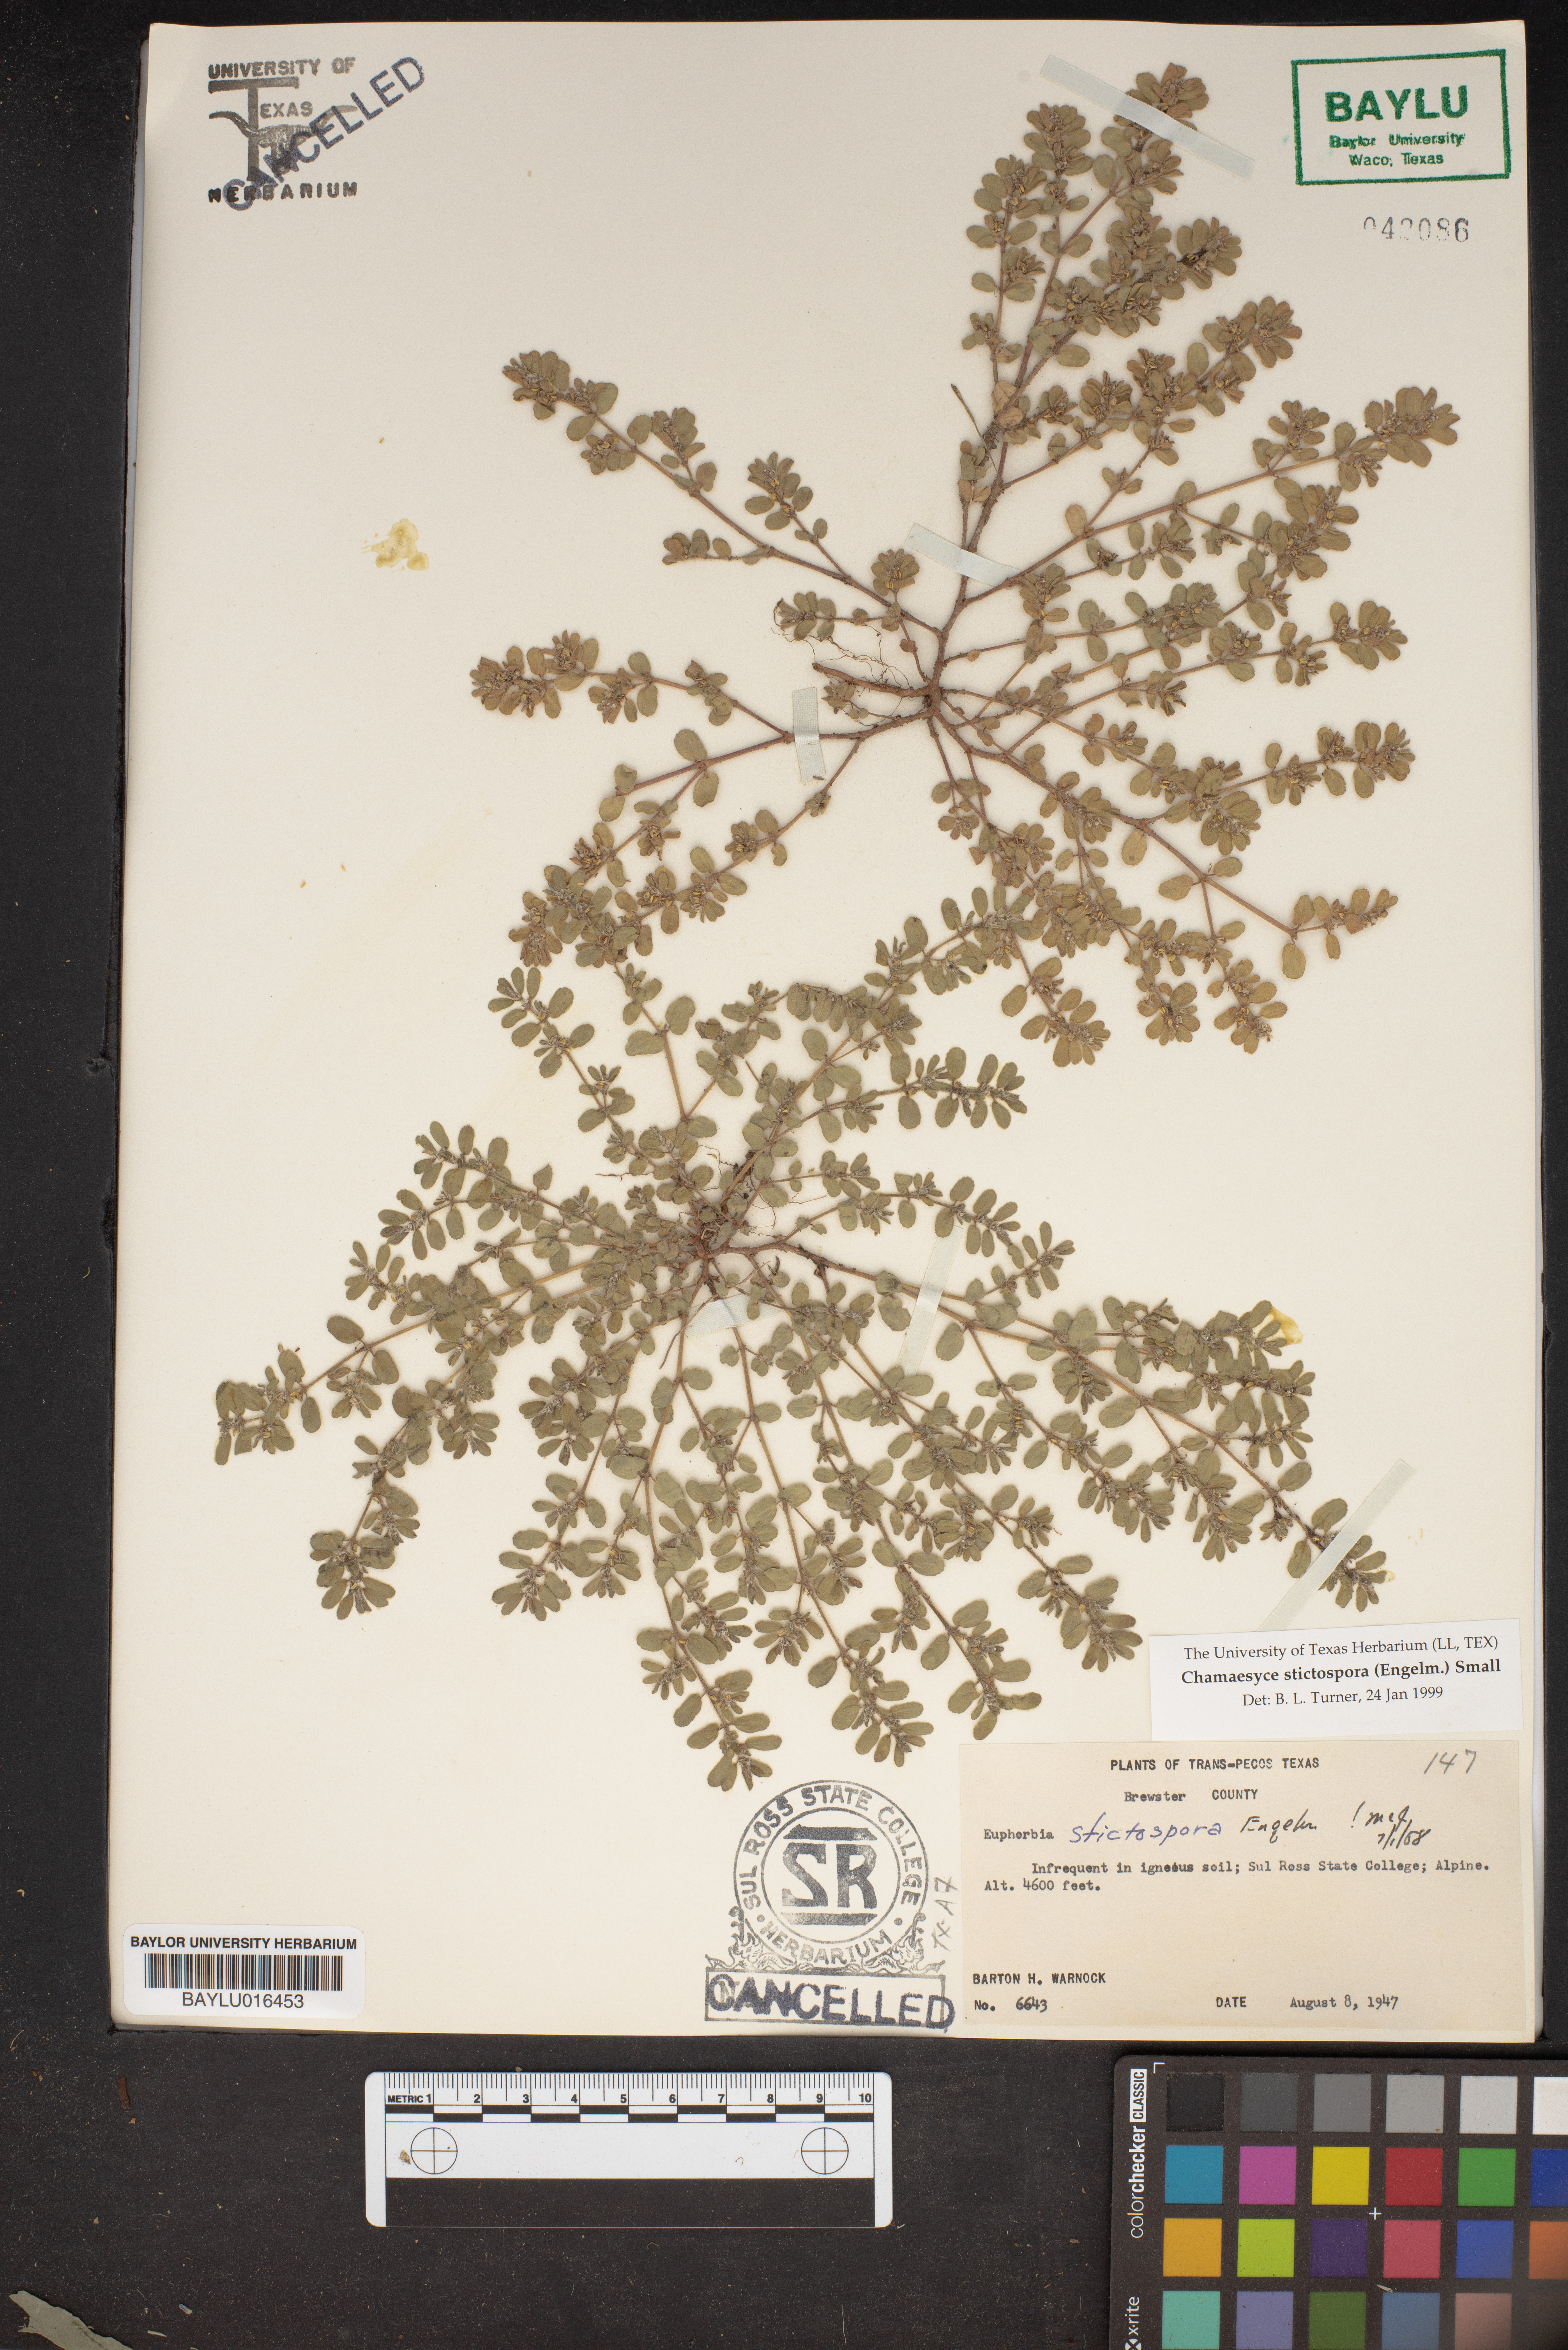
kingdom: Plantae
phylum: Tracheophyta
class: Magnoliopsida
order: Malpighiales
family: Euphorbiaceae
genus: Euphorbia
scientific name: Euphorbia stictospora
